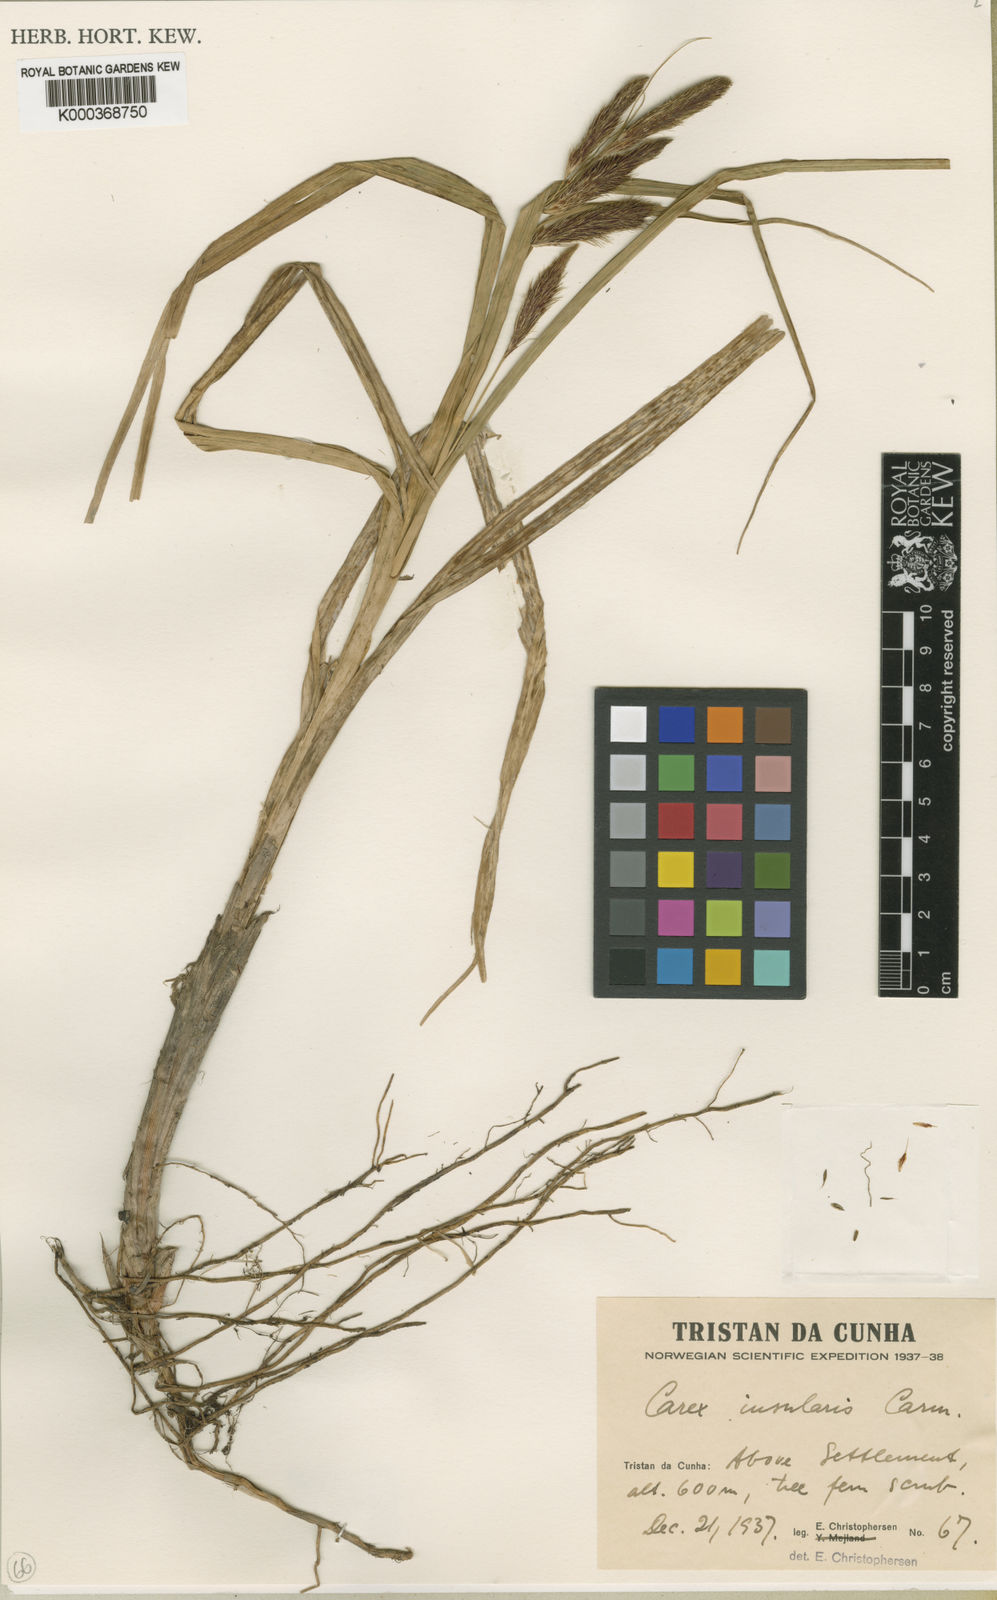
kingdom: Plantae
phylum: Tracheophyta
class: Liliopsida
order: Poales
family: Cyperaceae
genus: Carex
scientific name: Carex insularis
